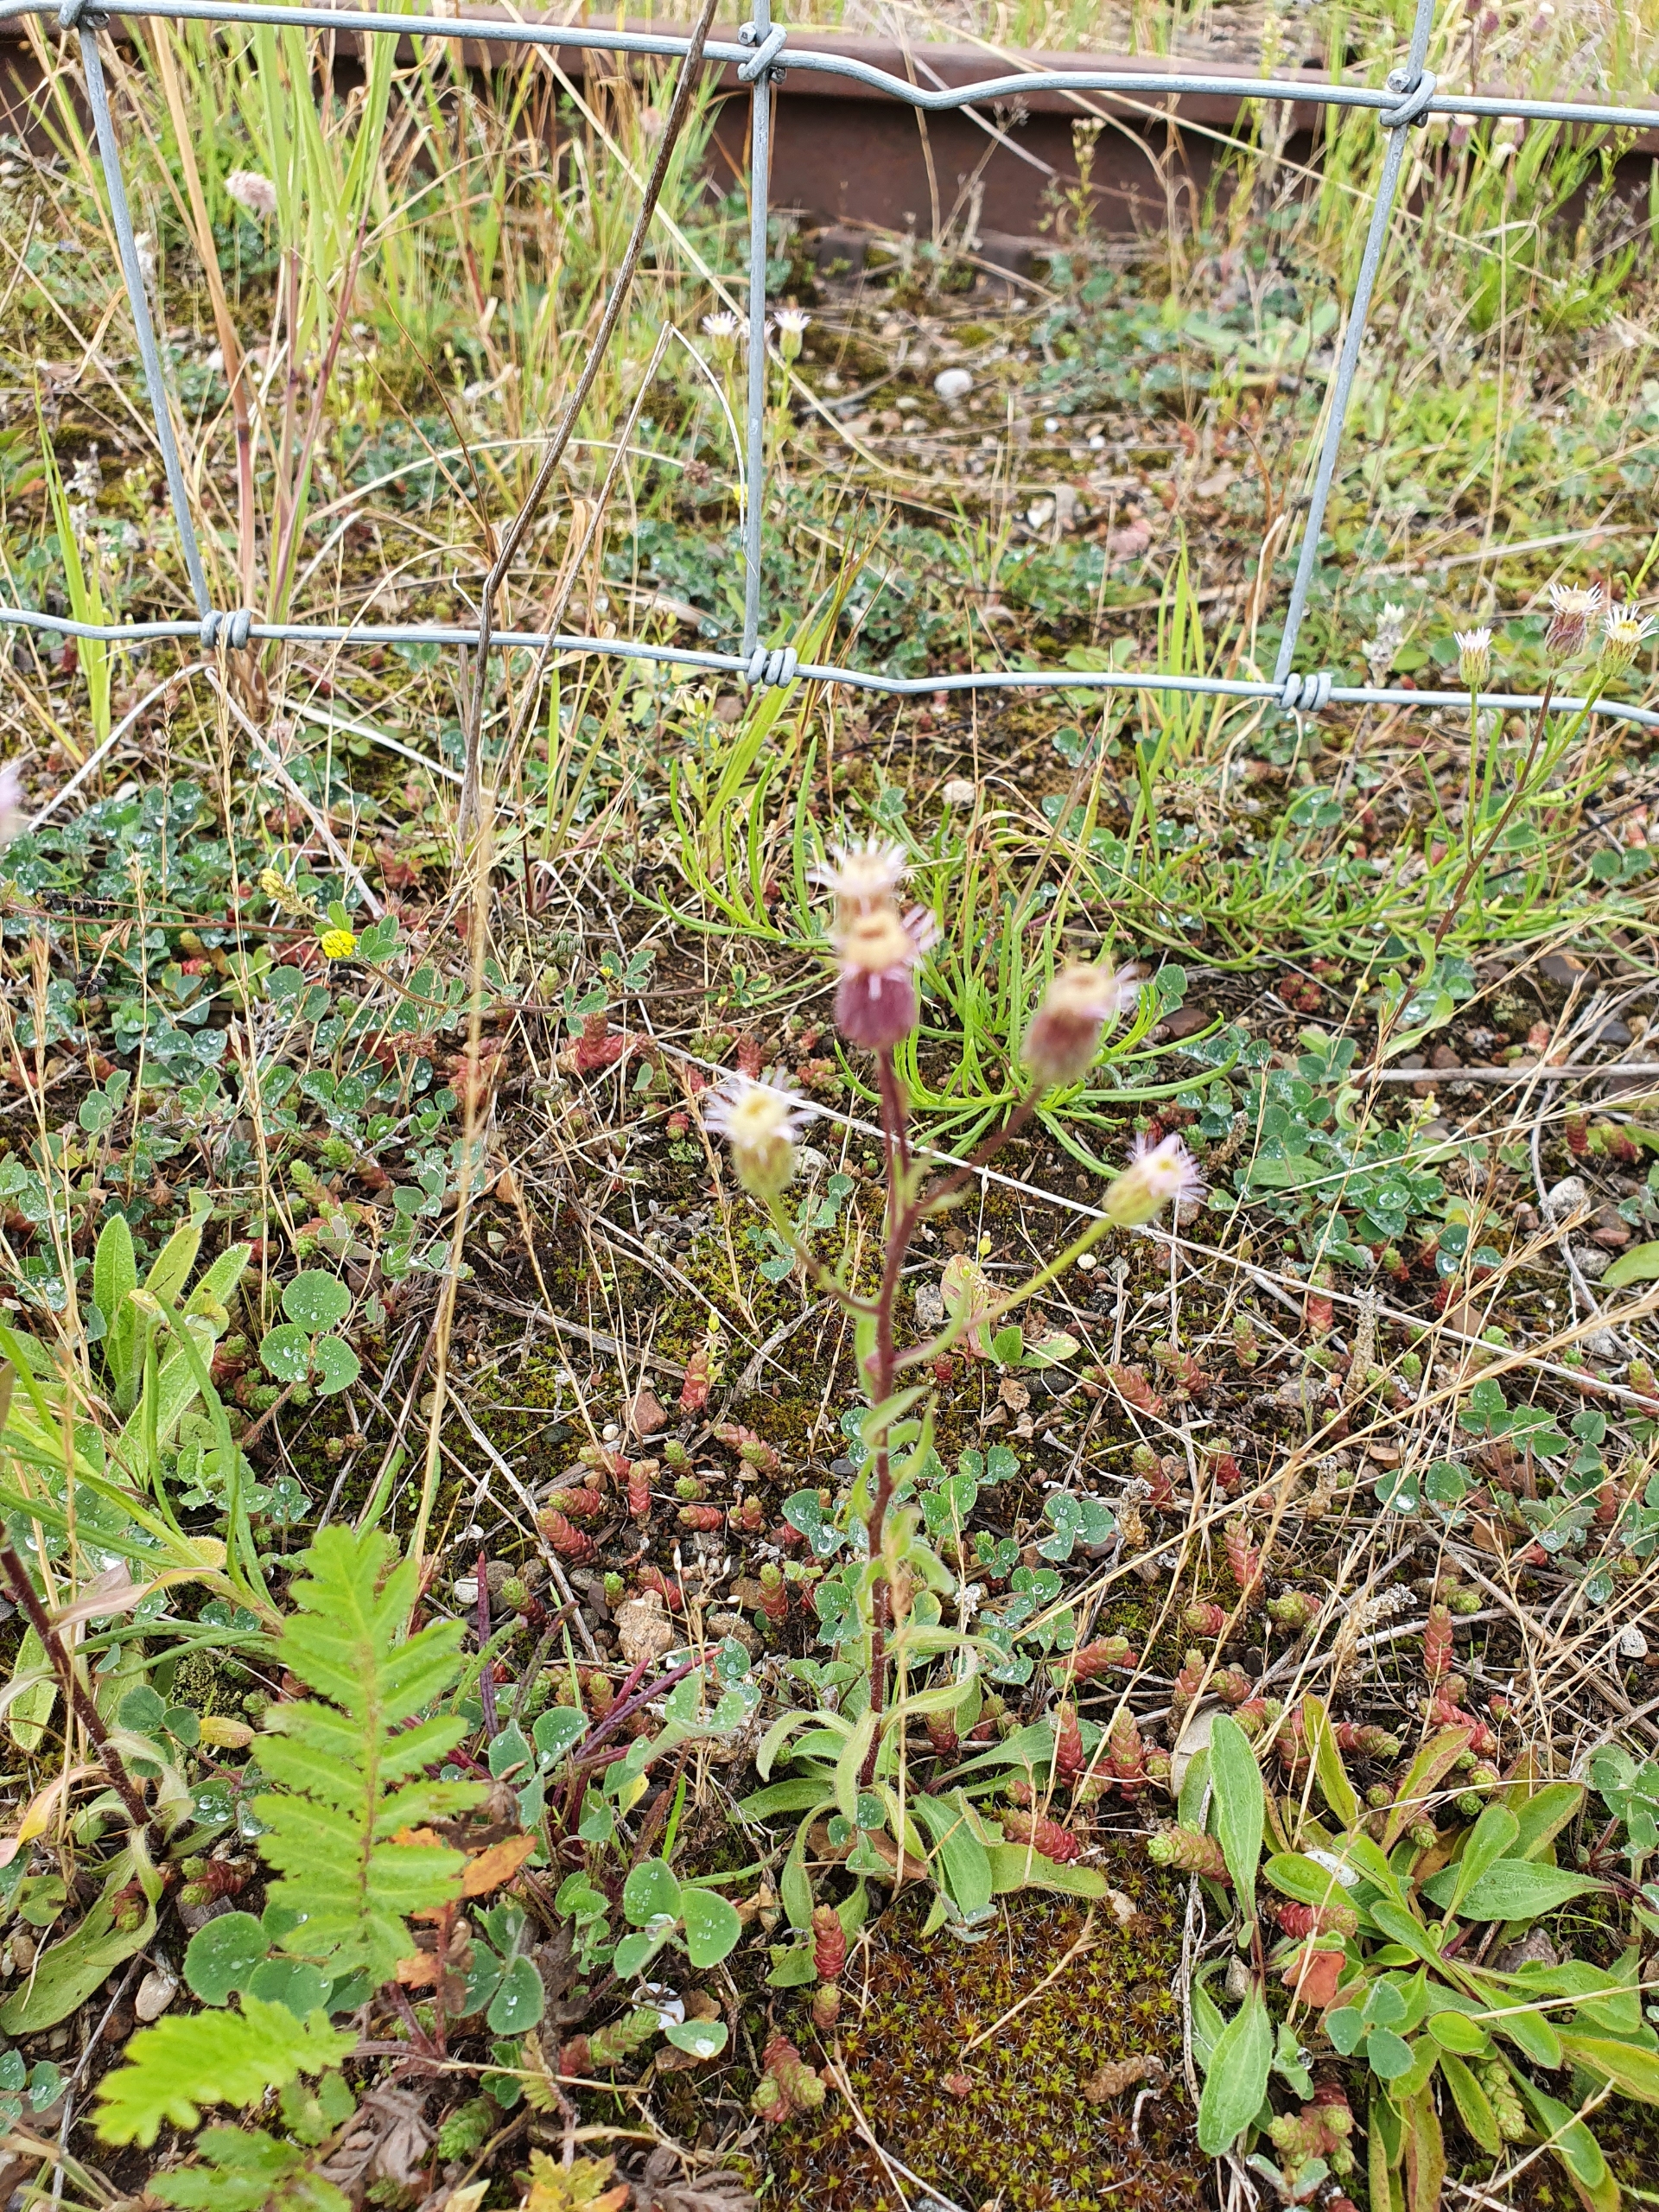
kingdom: Plantae
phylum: Tracheophyta
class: Magnoliopsida
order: Asterales
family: Asteraceae
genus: Erigeron
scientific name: Erigeron acris
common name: Bitter bakkestjerne
